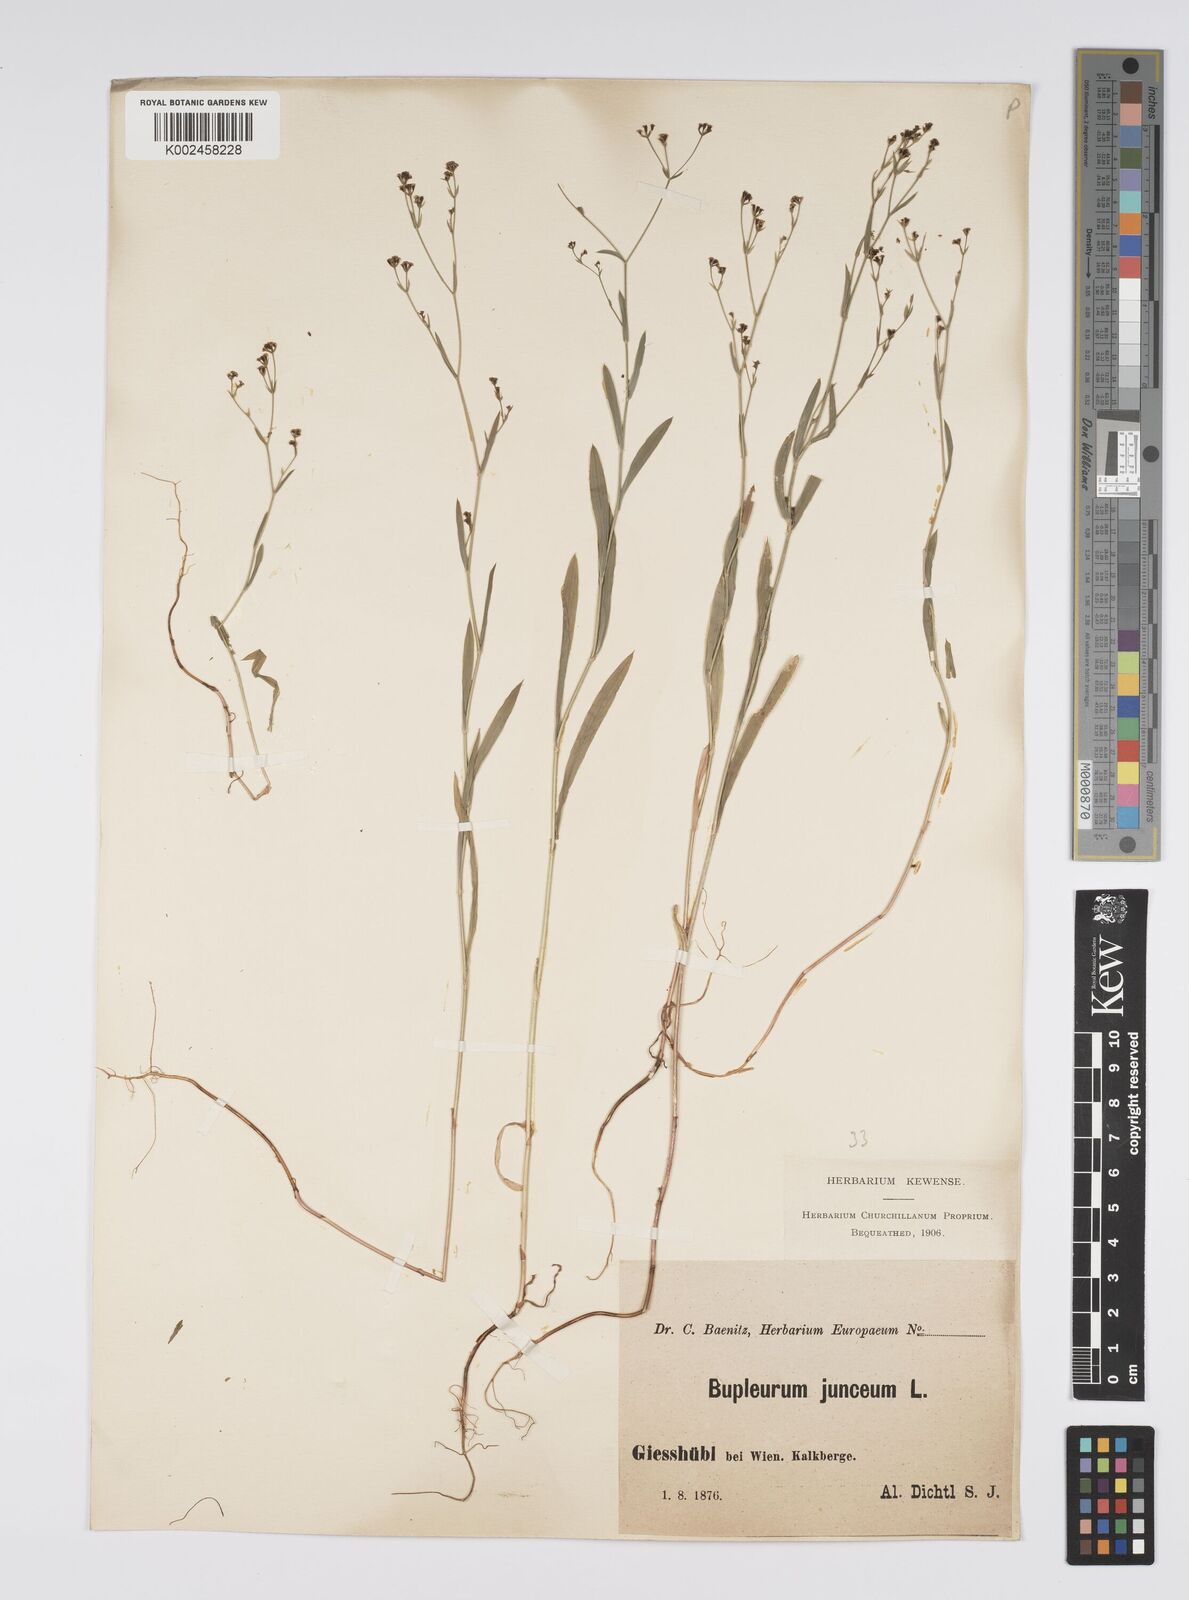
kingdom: Plantae
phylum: Tracheophyta
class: Magnoliopsida
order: Apiales
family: Apiaceae
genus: Bupleurum
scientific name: Bupleurum praealtum
